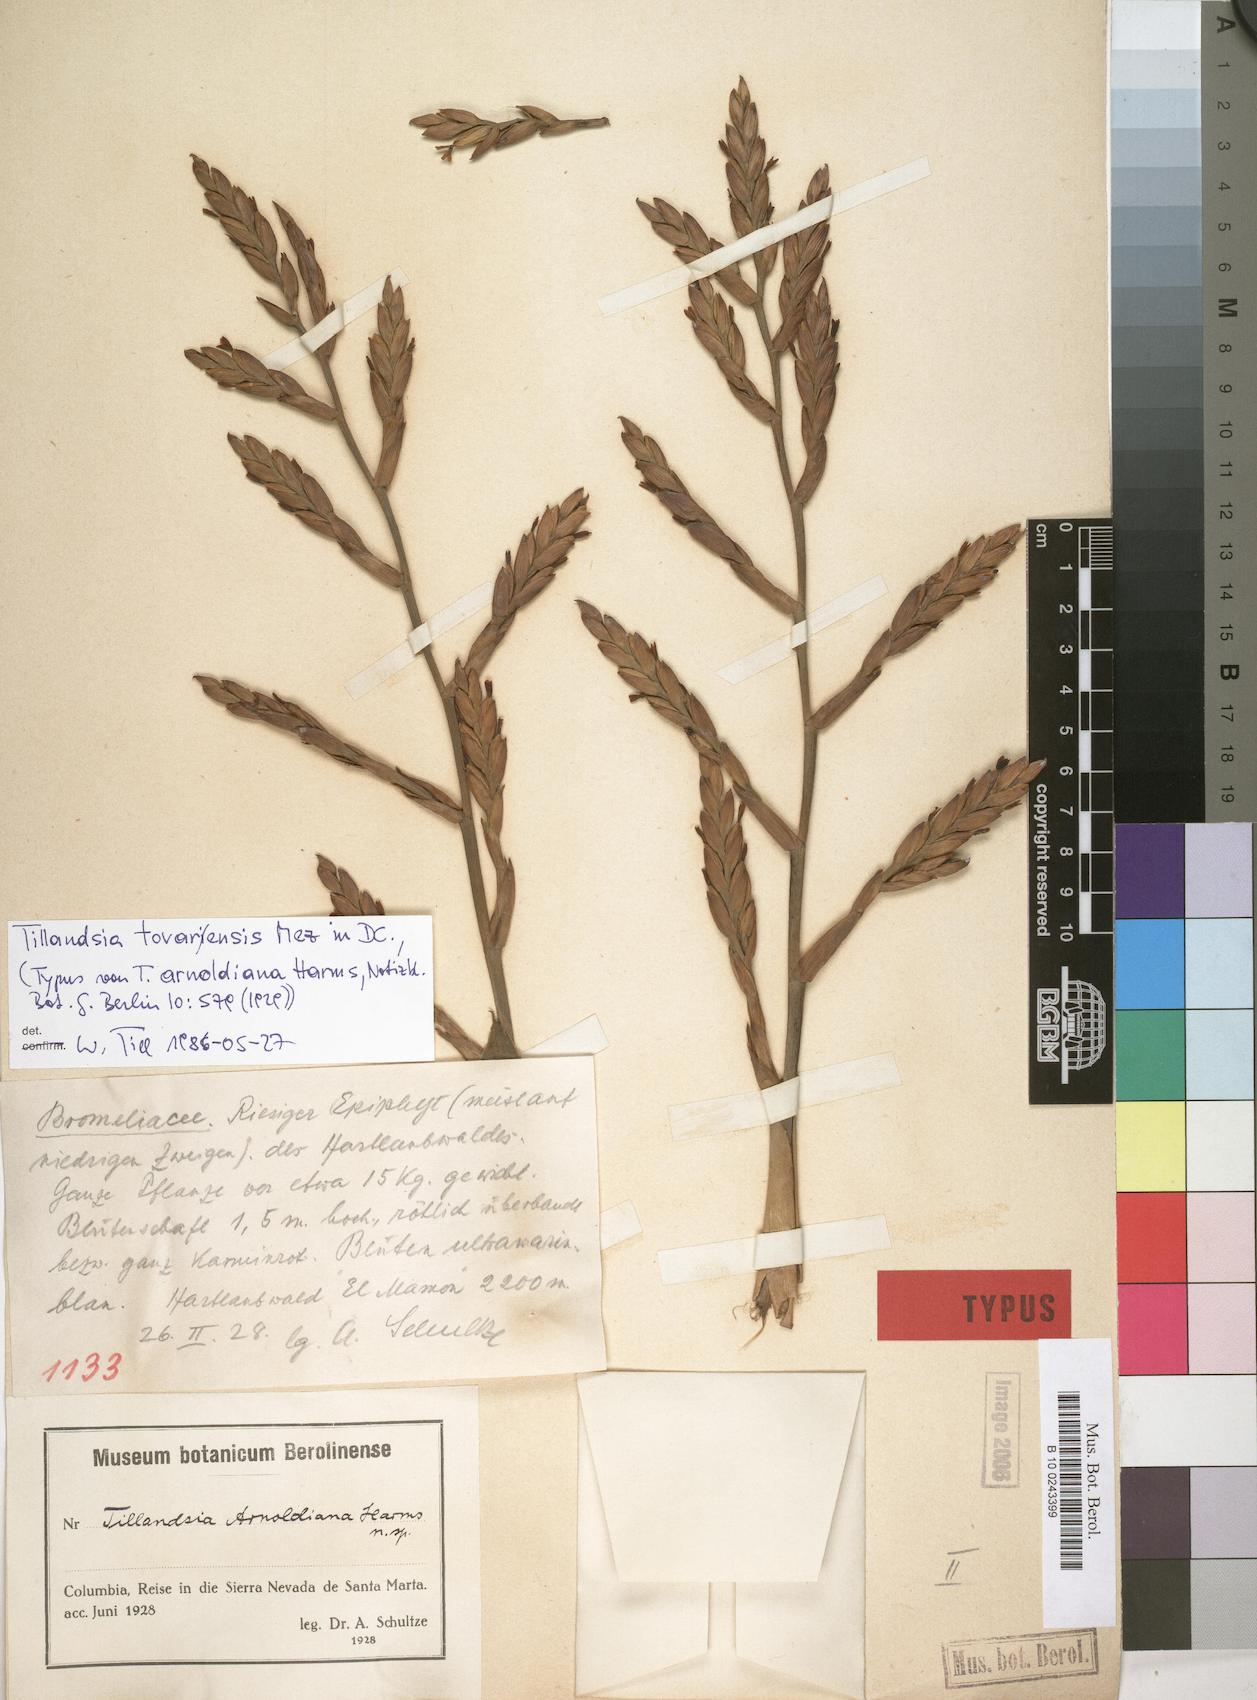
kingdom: Plantae
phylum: Tracheophyta
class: Liliopsida
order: Poales
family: Bromeliaceae
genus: Tillandsia
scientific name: Tillandsia tovarensis
